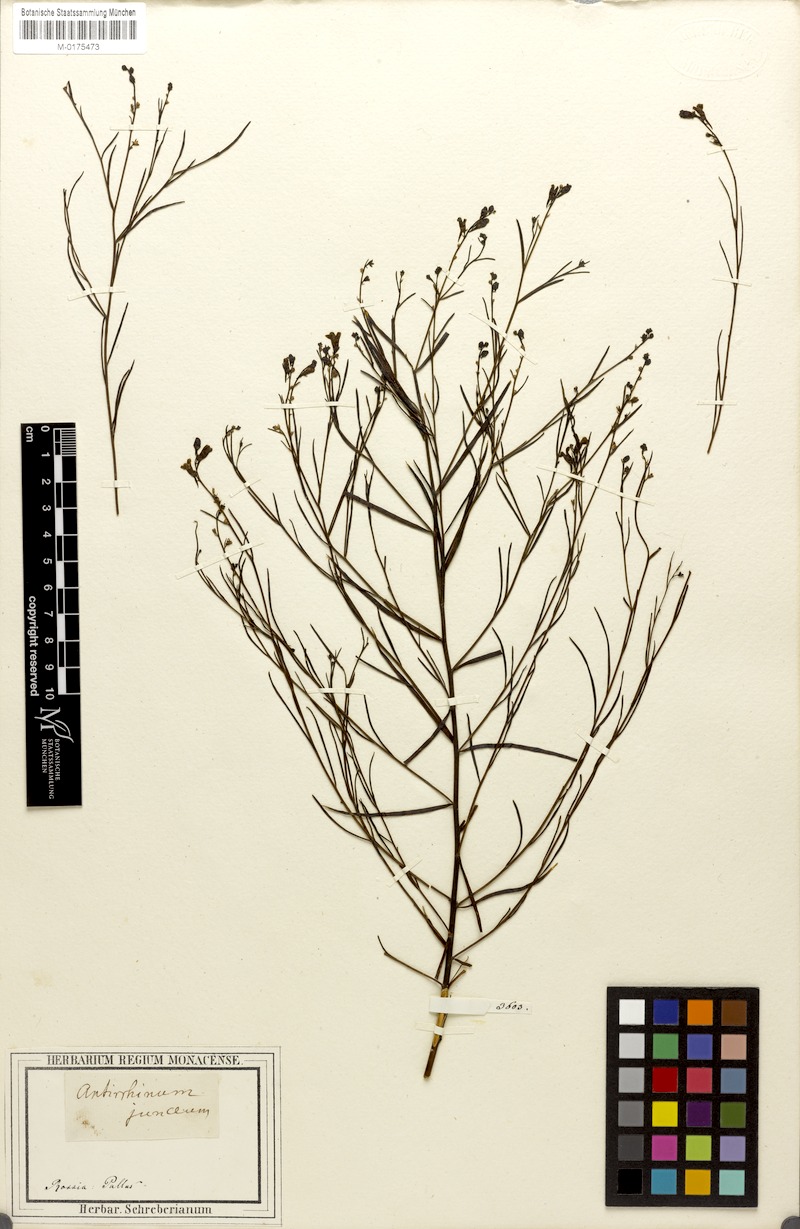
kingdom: Plantae
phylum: Tracheophyta
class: Magnoliopsida
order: Lamiales
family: Plantaginaceae
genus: Linaria
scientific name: Linaria odora
